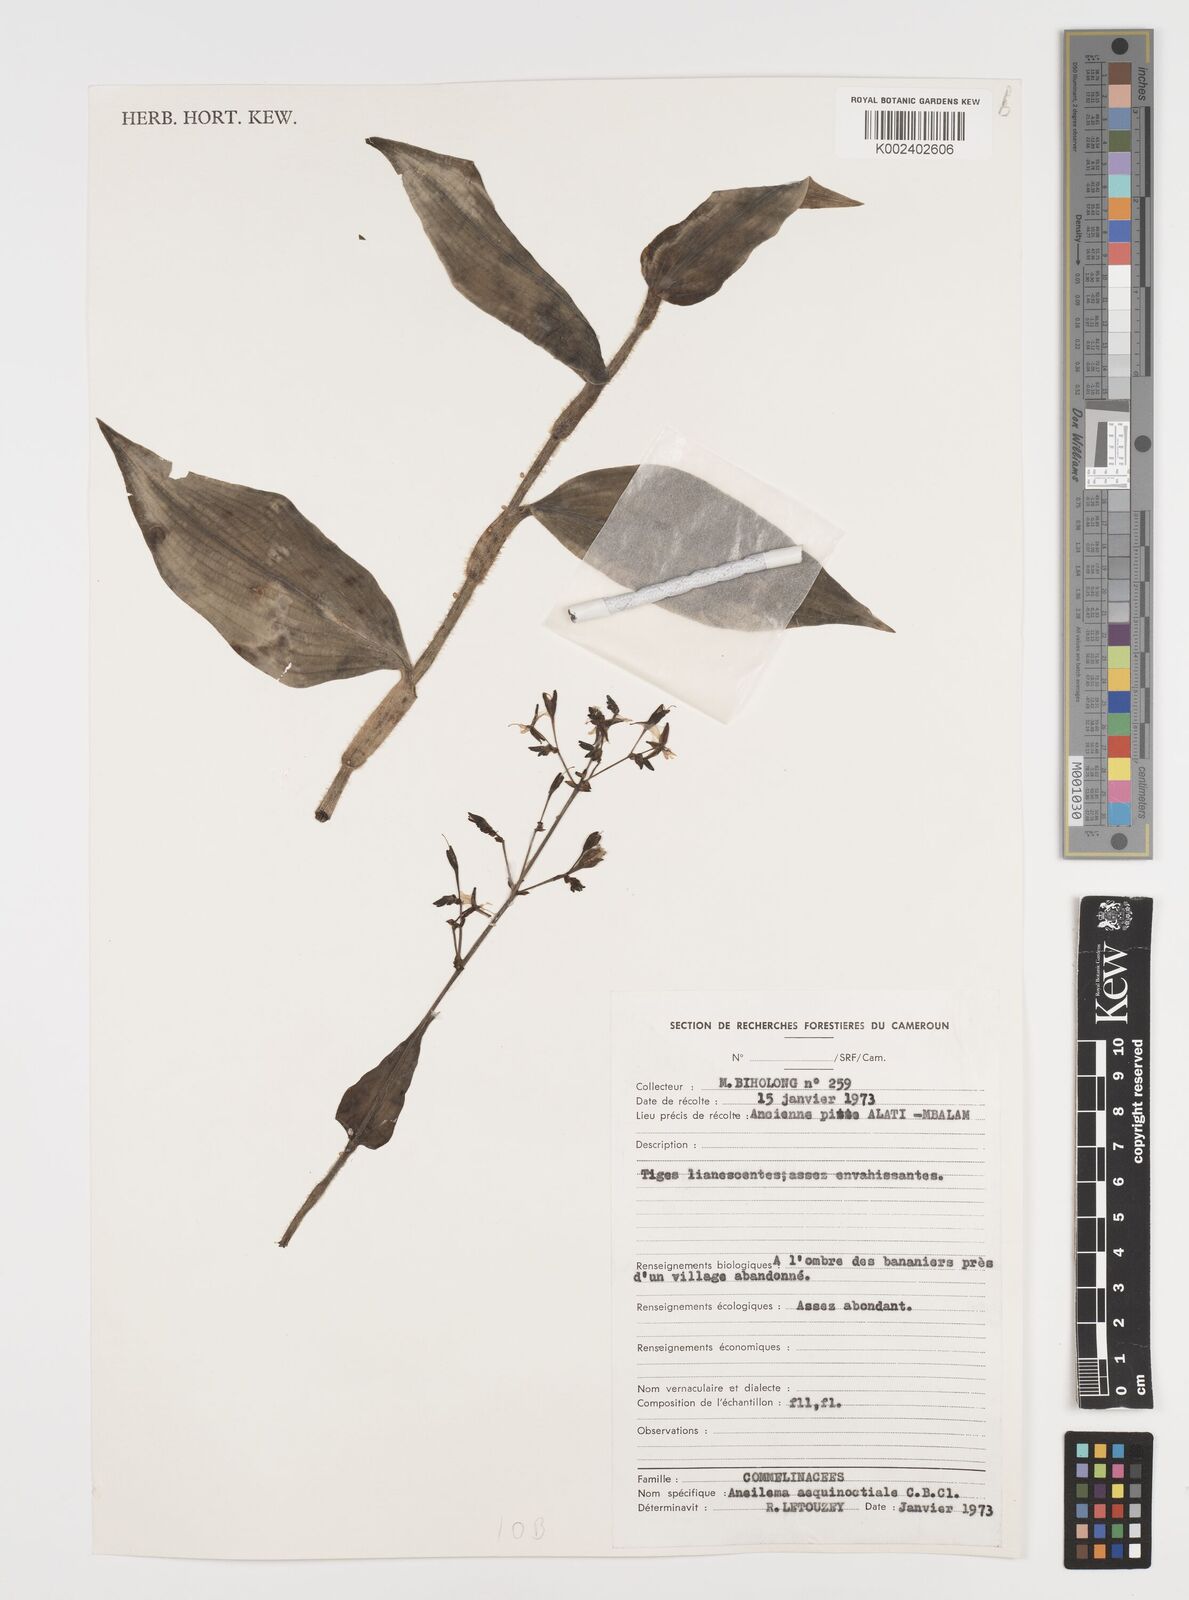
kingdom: Plantae
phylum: Tracheophyta
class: Liliopsida
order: Commelinales
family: Commelinaceae
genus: Aneilema
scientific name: Aneilema aequinoctiale
